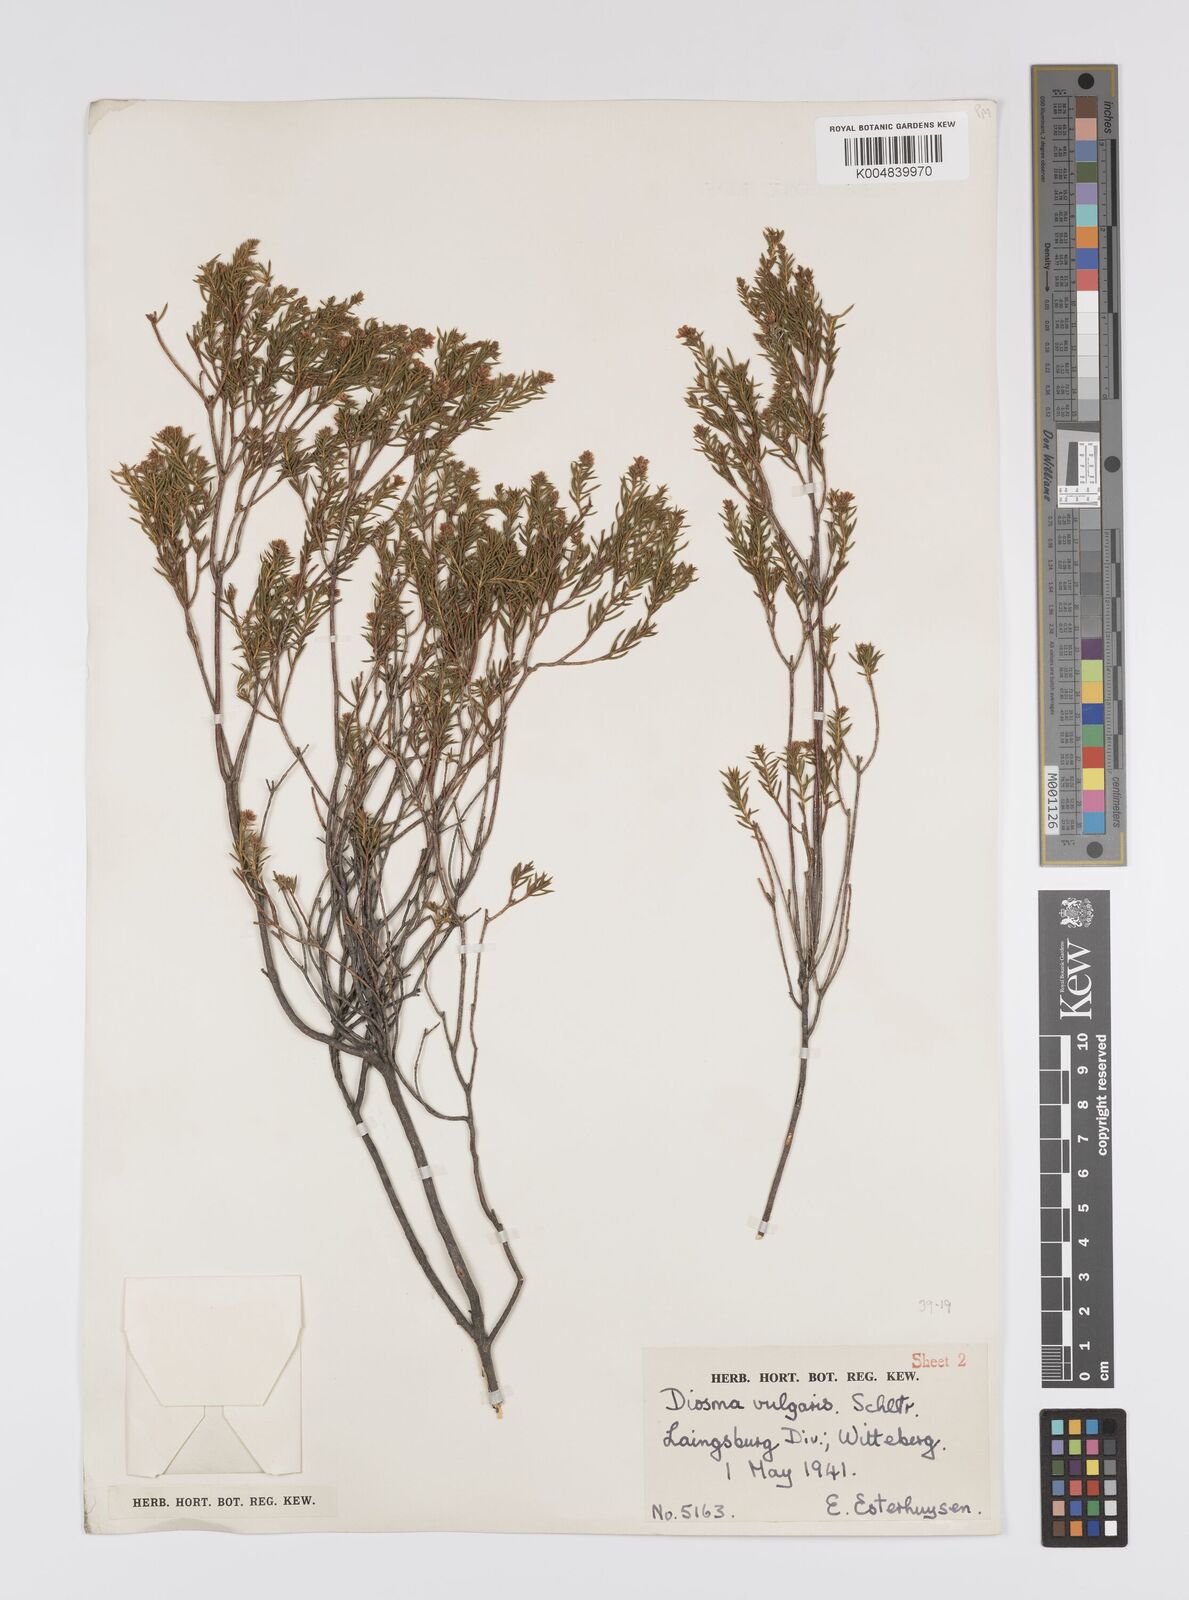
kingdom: Plantae
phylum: Tracheophyta
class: Magnoliopsida
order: Sapindales
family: Rutaceae
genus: Diosma
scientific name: Diosma acmaeophylla
